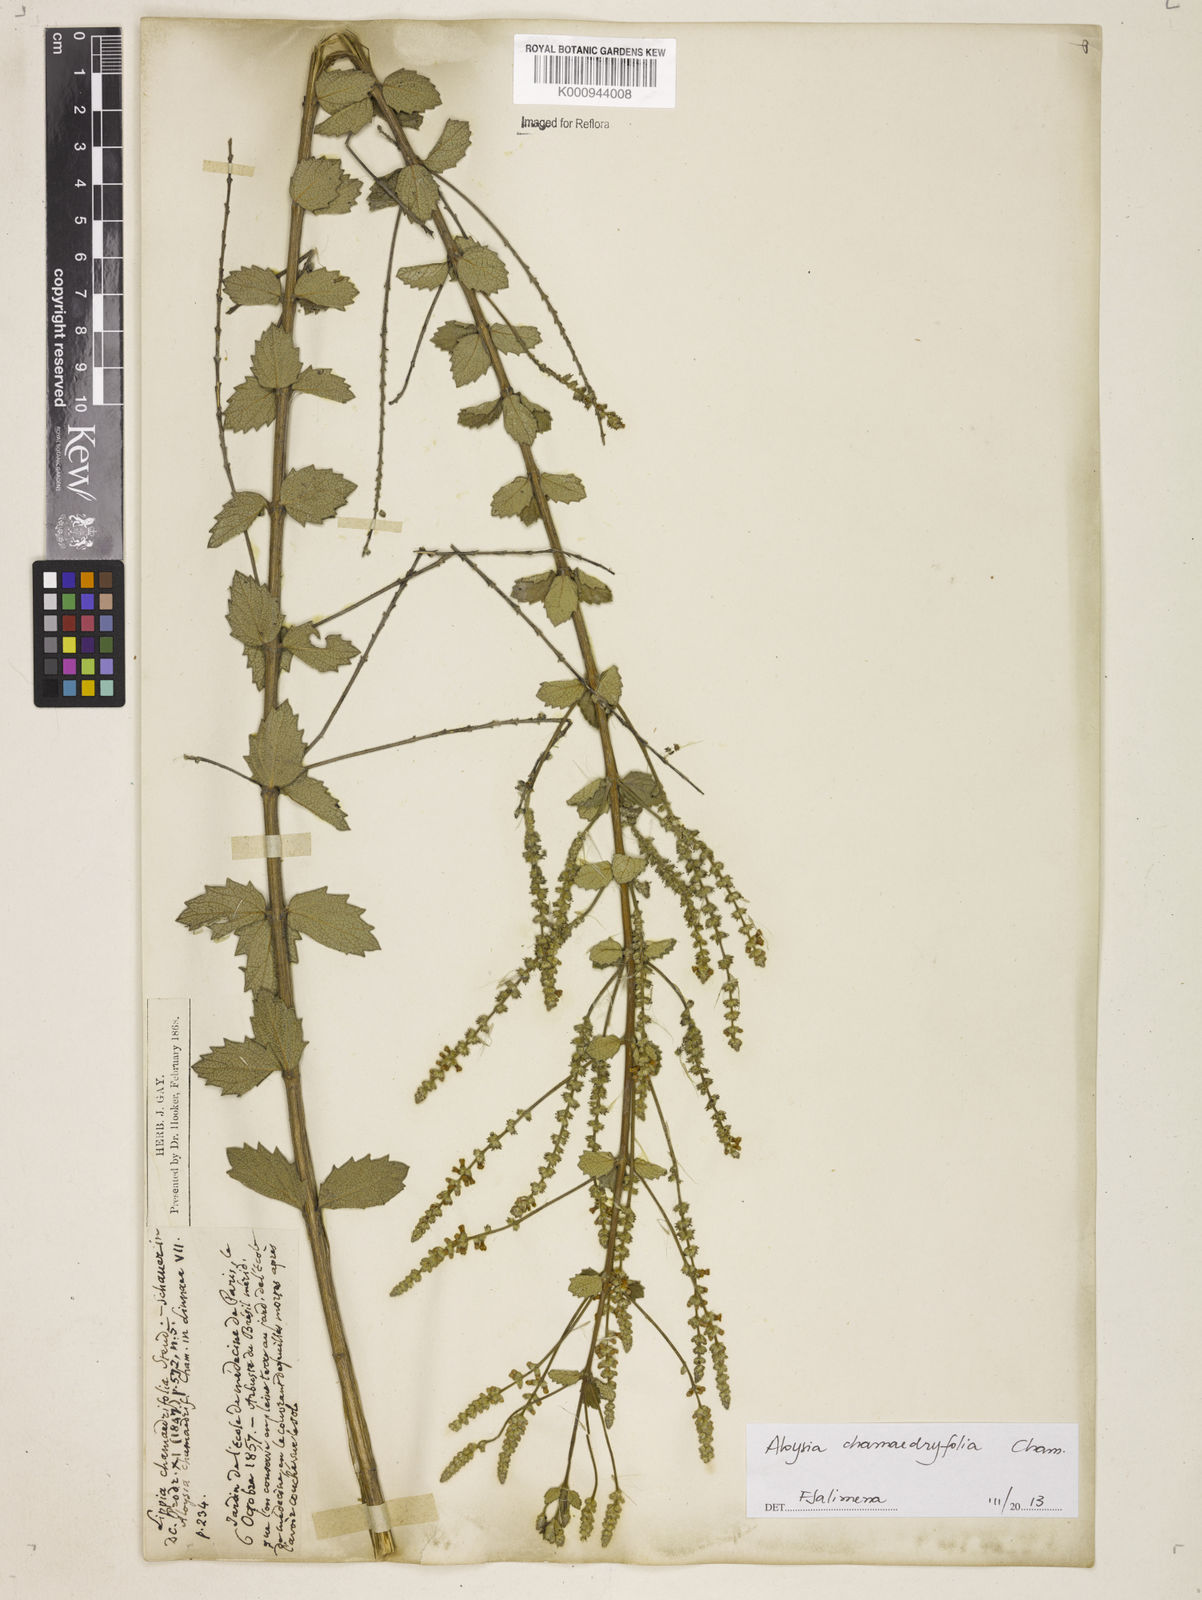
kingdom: Plantae
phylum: Tracheophyta
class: Magnoliopsida
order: Lamiales
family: Verbenaceae
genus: Aloysia
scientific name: Aloysia
